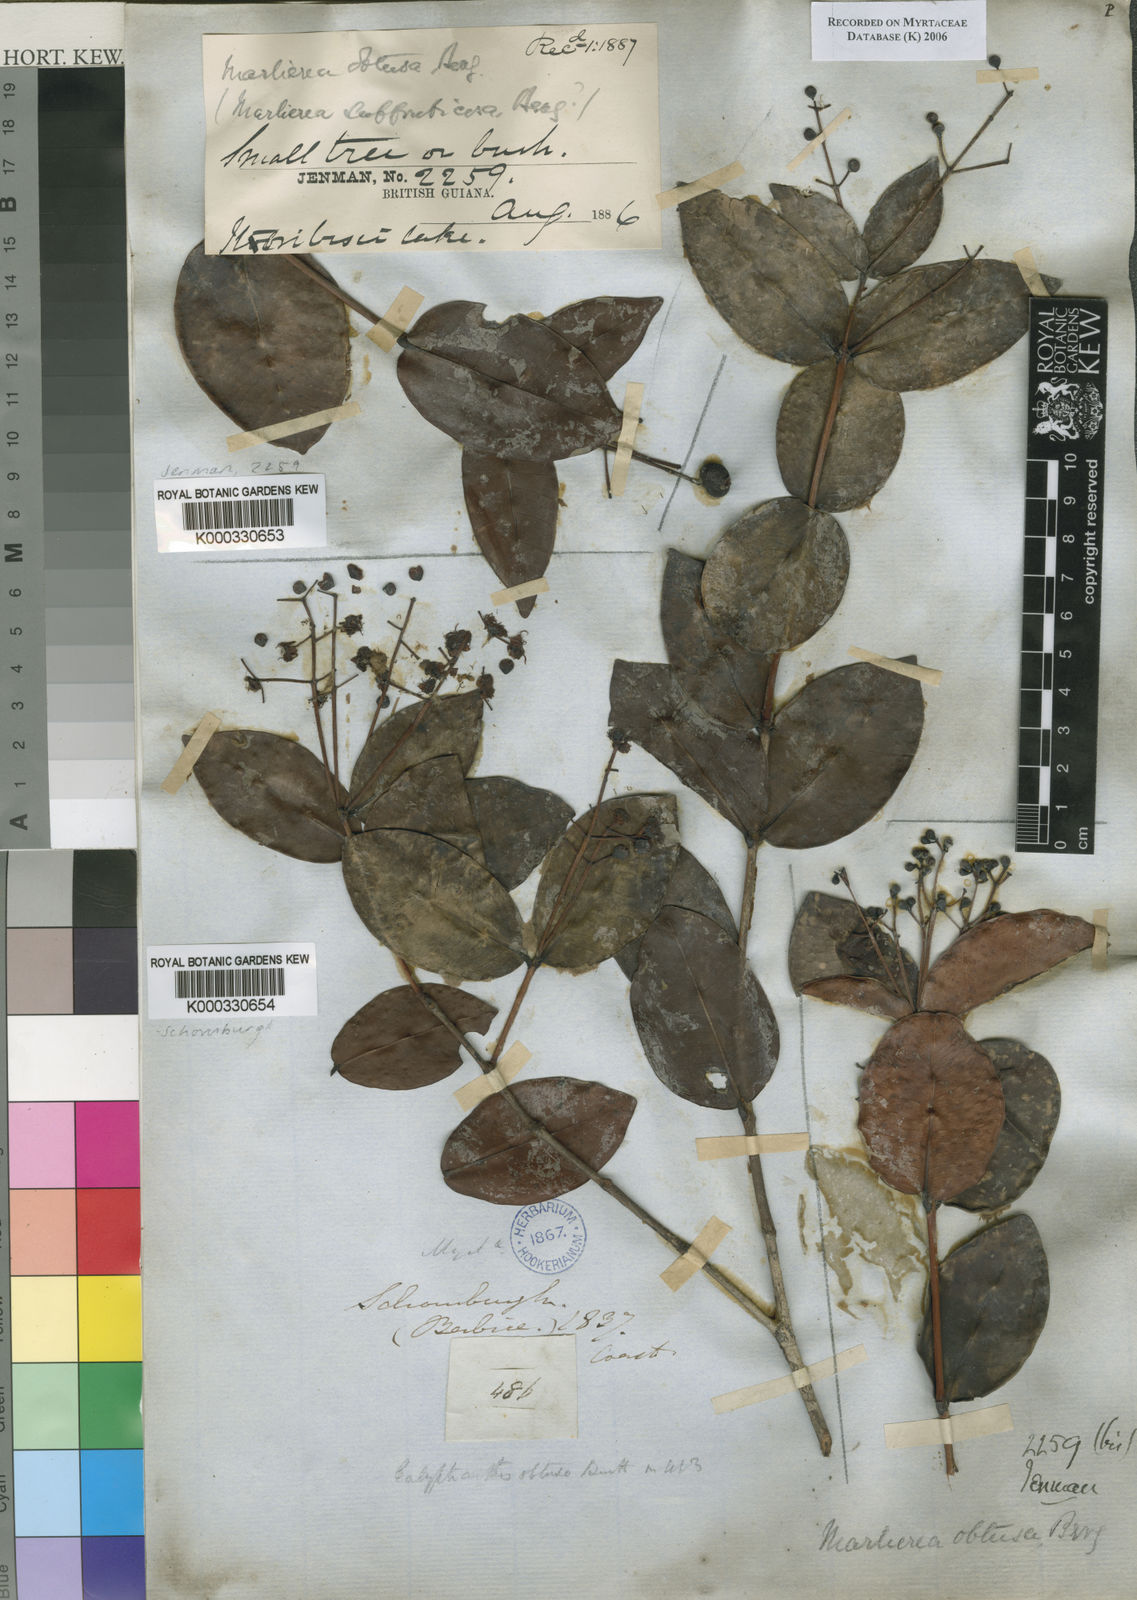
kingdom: Plantae
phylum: Tracheophyta
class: Magnoliopsida
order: Myrtales
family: Myrtaceae
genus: Myrcia
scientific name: Myrcia neomontana
